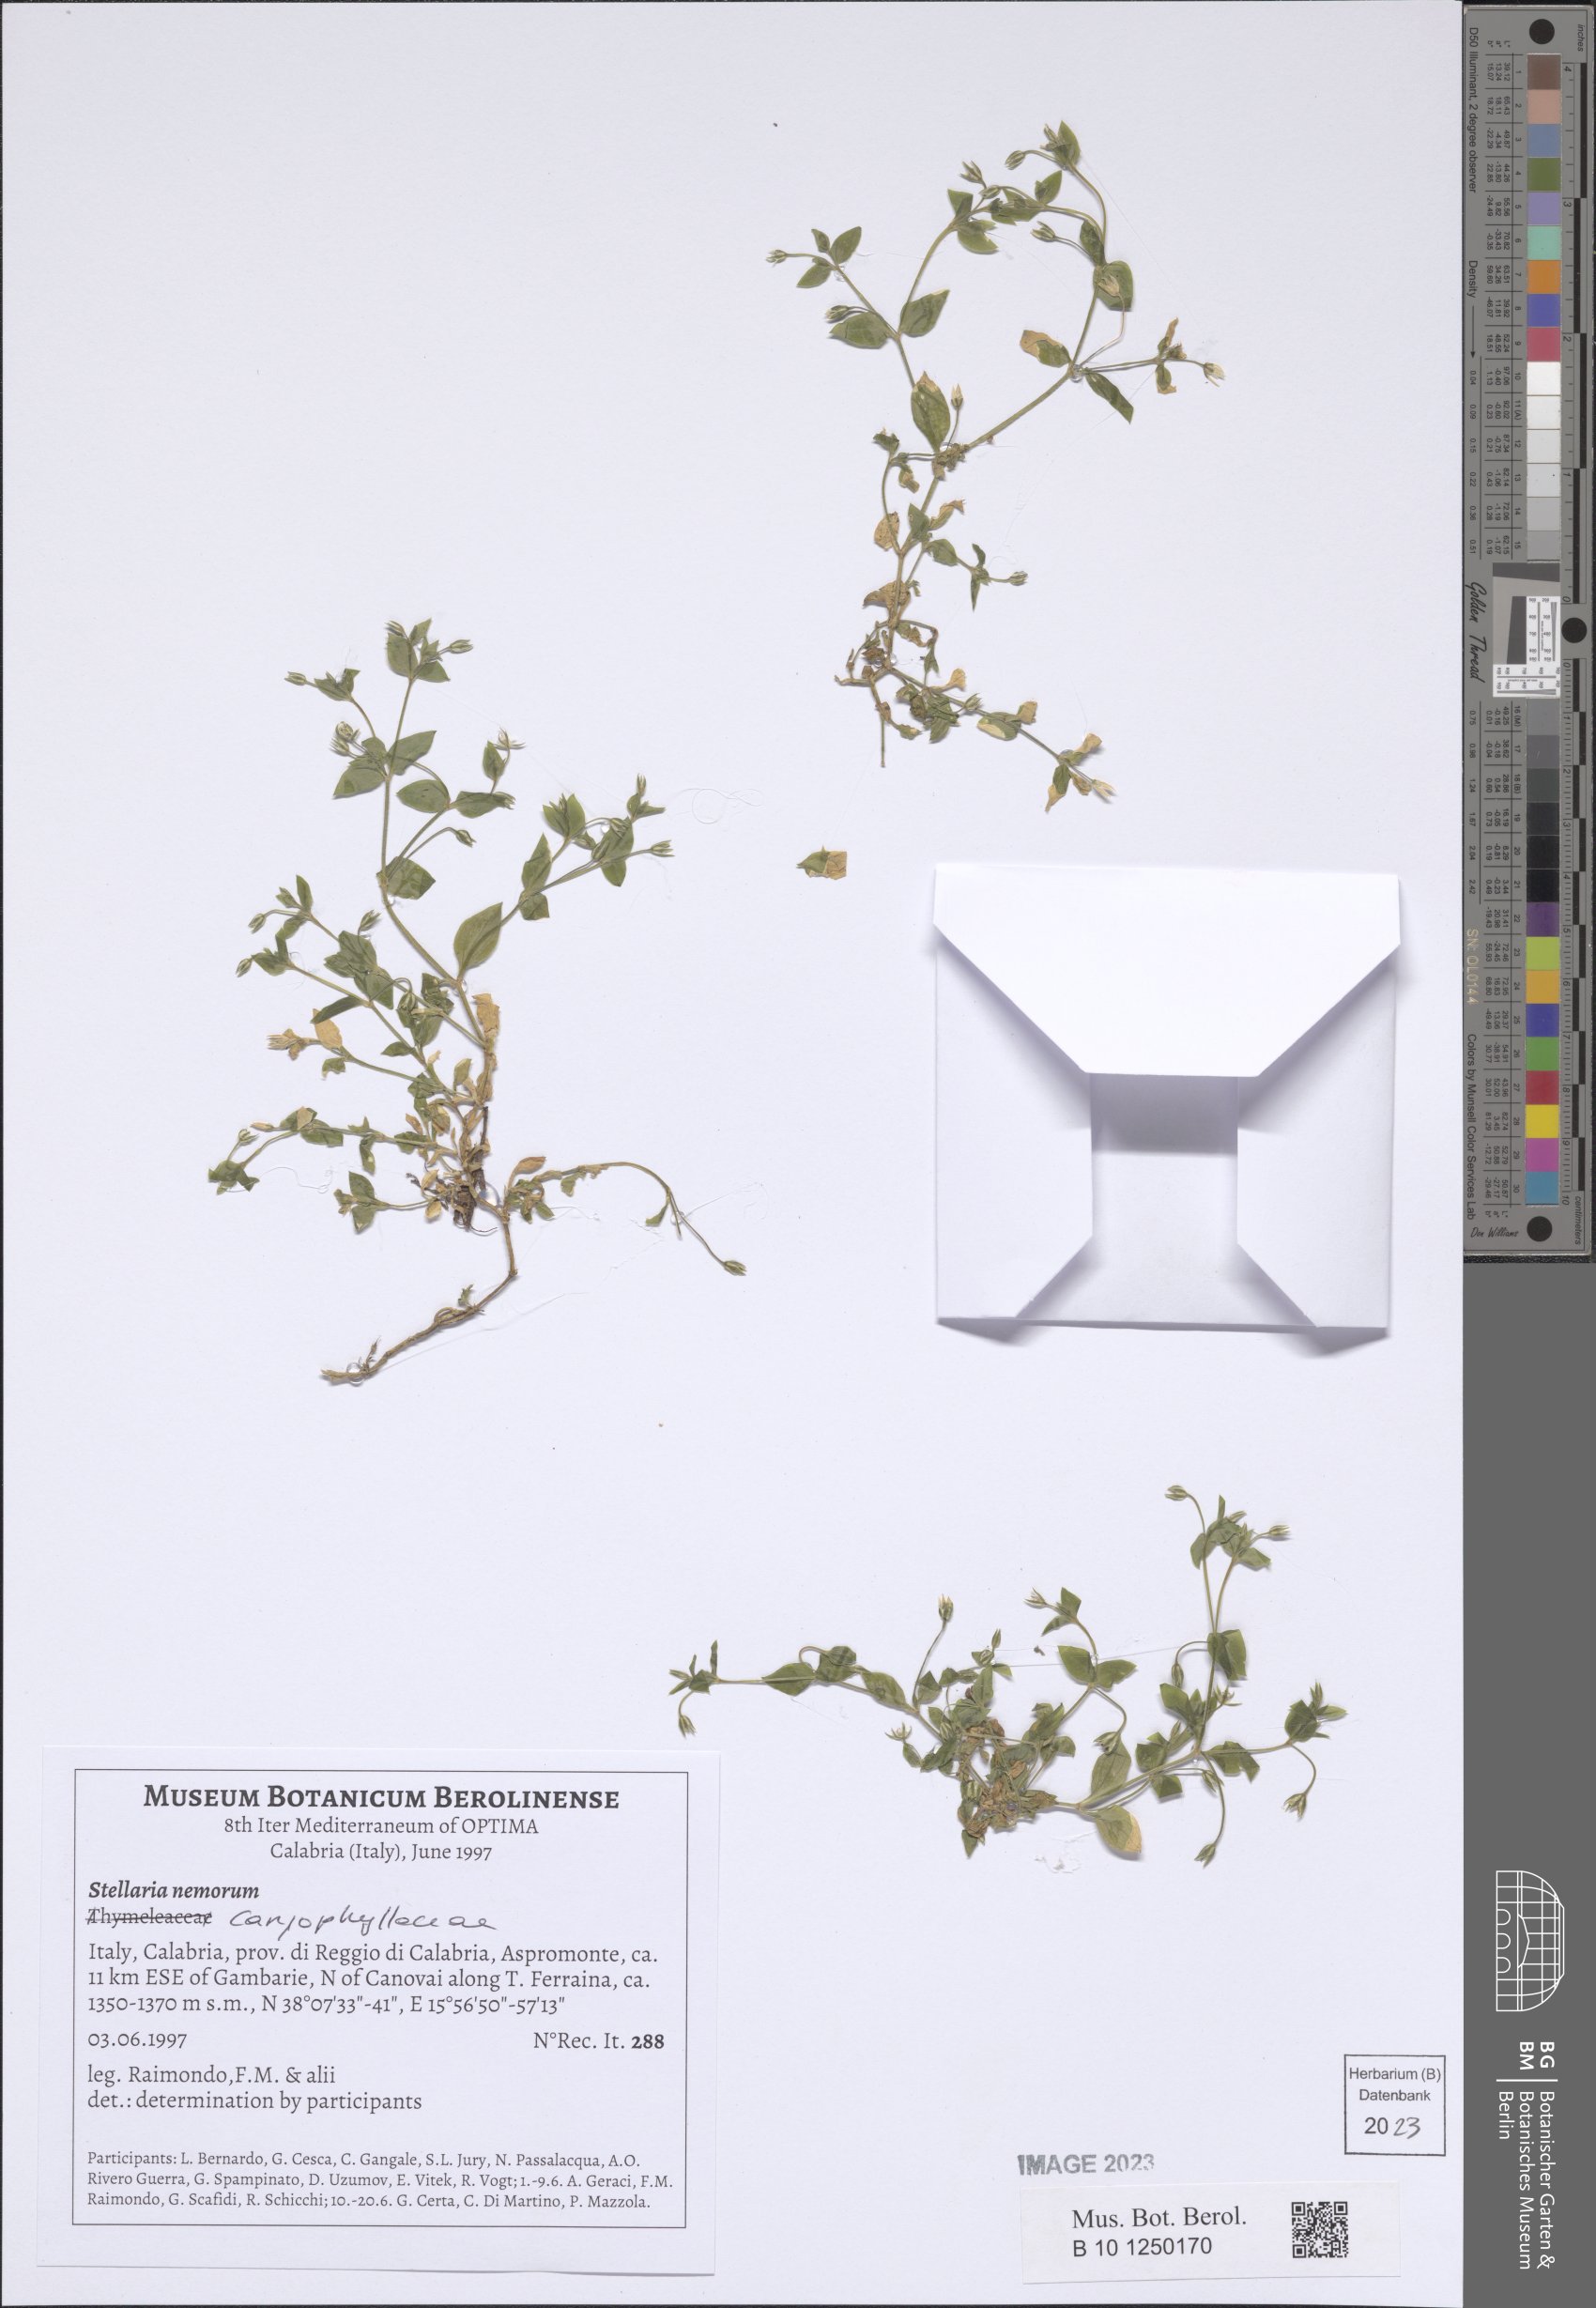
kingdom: Plantae
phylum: Tracheophyta
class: Magnoliopsida
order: Caryophyllales
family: Caryophyllaceae
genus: Stellaria
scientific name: Stellaria nemorum
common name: Wood stitchwort
